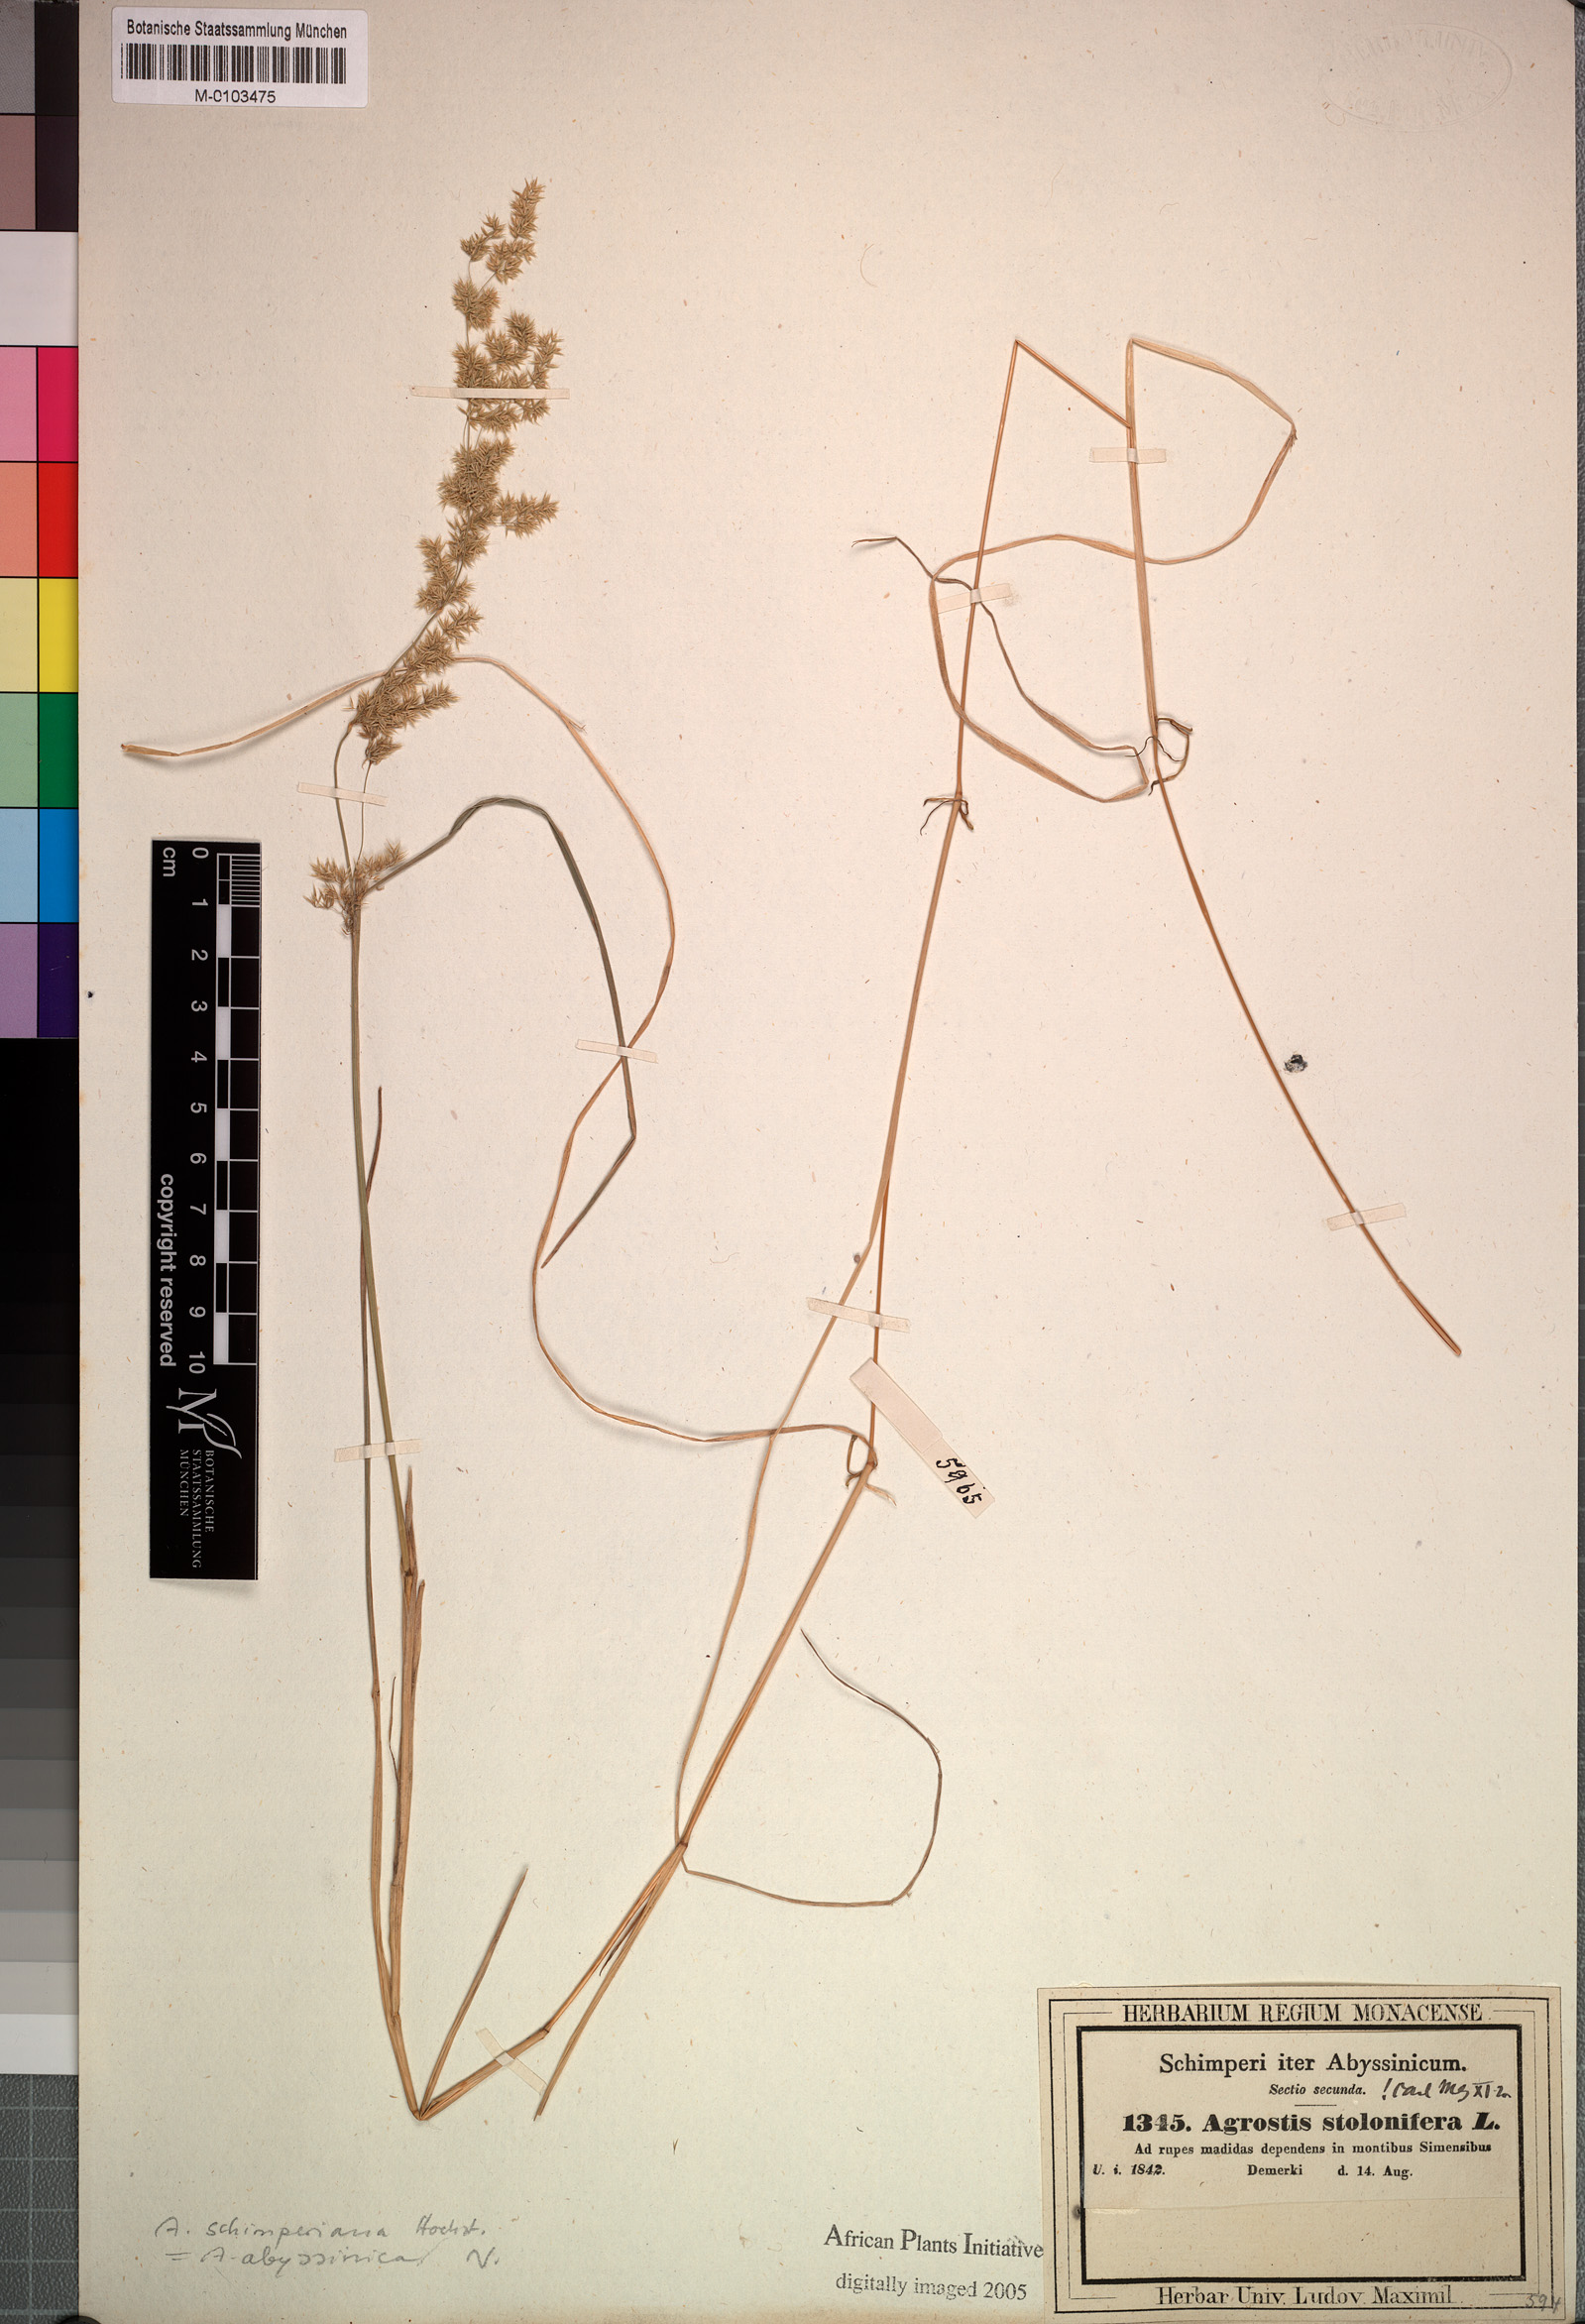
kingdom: Plantae
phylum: Tracheophyta
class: Liliopsida
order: Poales
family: Poaceae
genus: Polypogon
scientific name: Polypogon schimperianus
